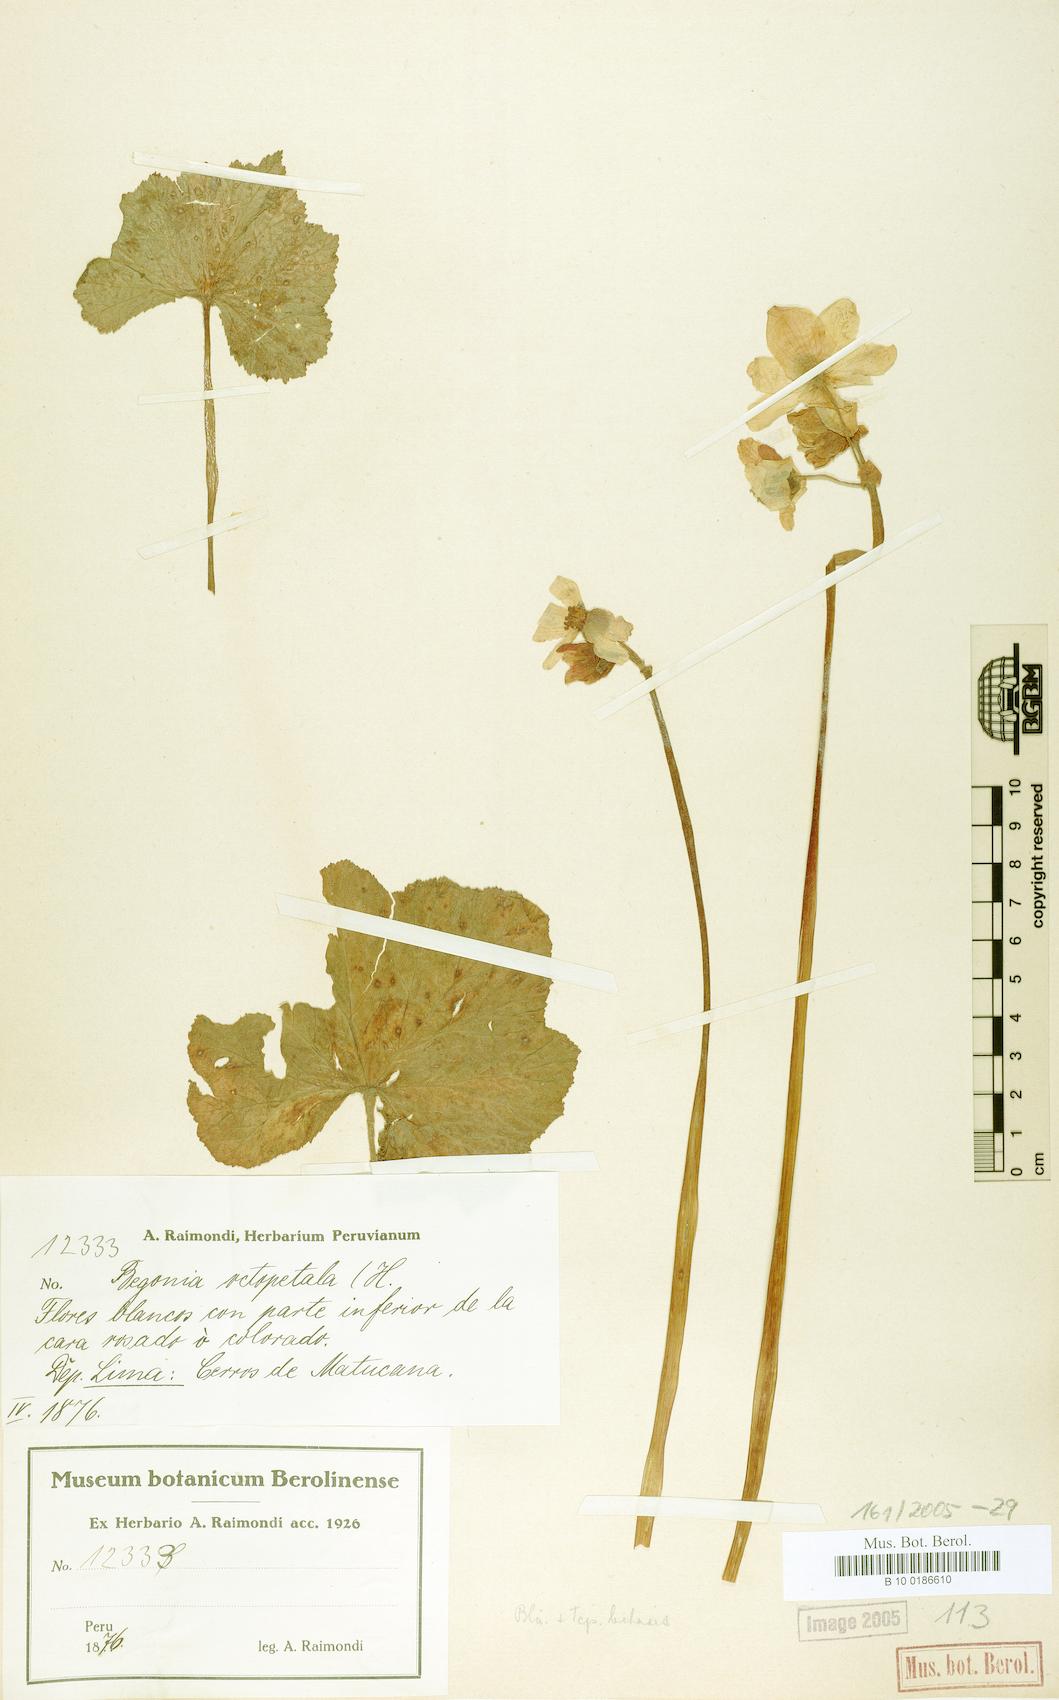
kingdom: Plantae
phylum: Tracheophyta
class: Magnoliopsida
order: Cucurbitales
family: Begoniaceae
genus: Begonia
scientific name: Begonia octopetala
